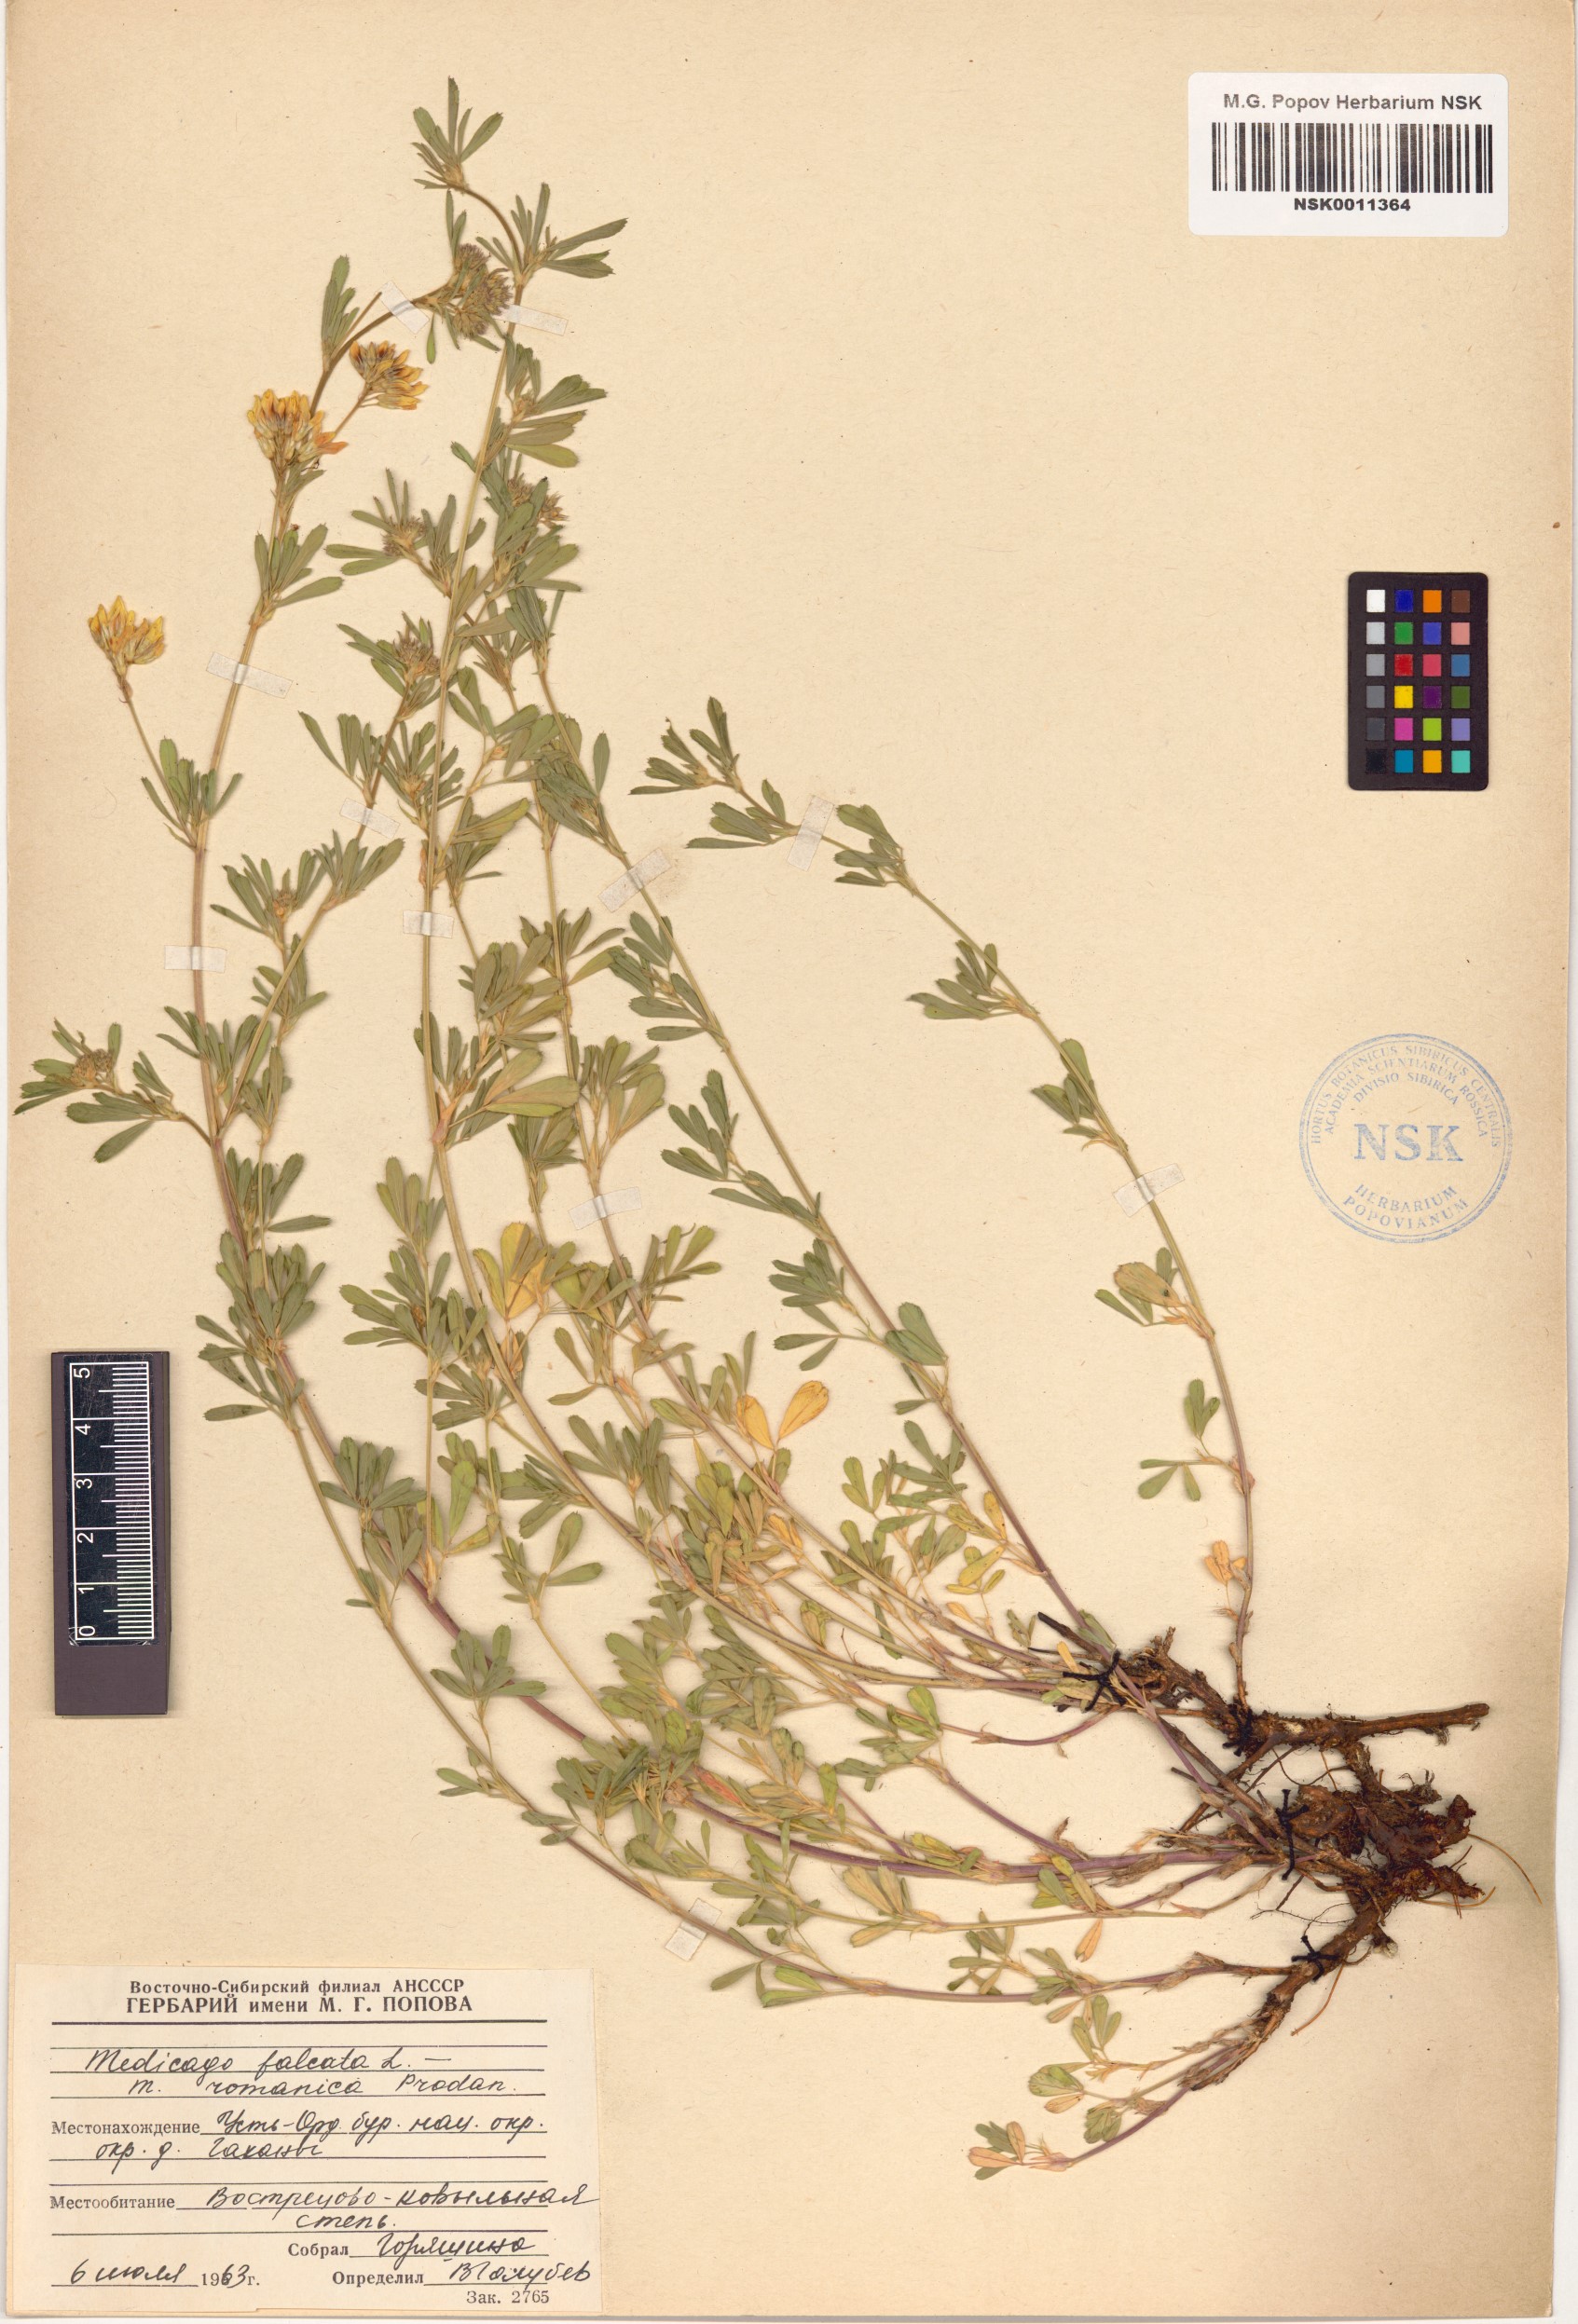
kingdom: Plantae
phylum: Tracheophyta
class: Magnoliopsida
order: Fabales
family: Fabaceae
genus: Medicago
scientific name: Medicago falcata
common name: Sickle medick
